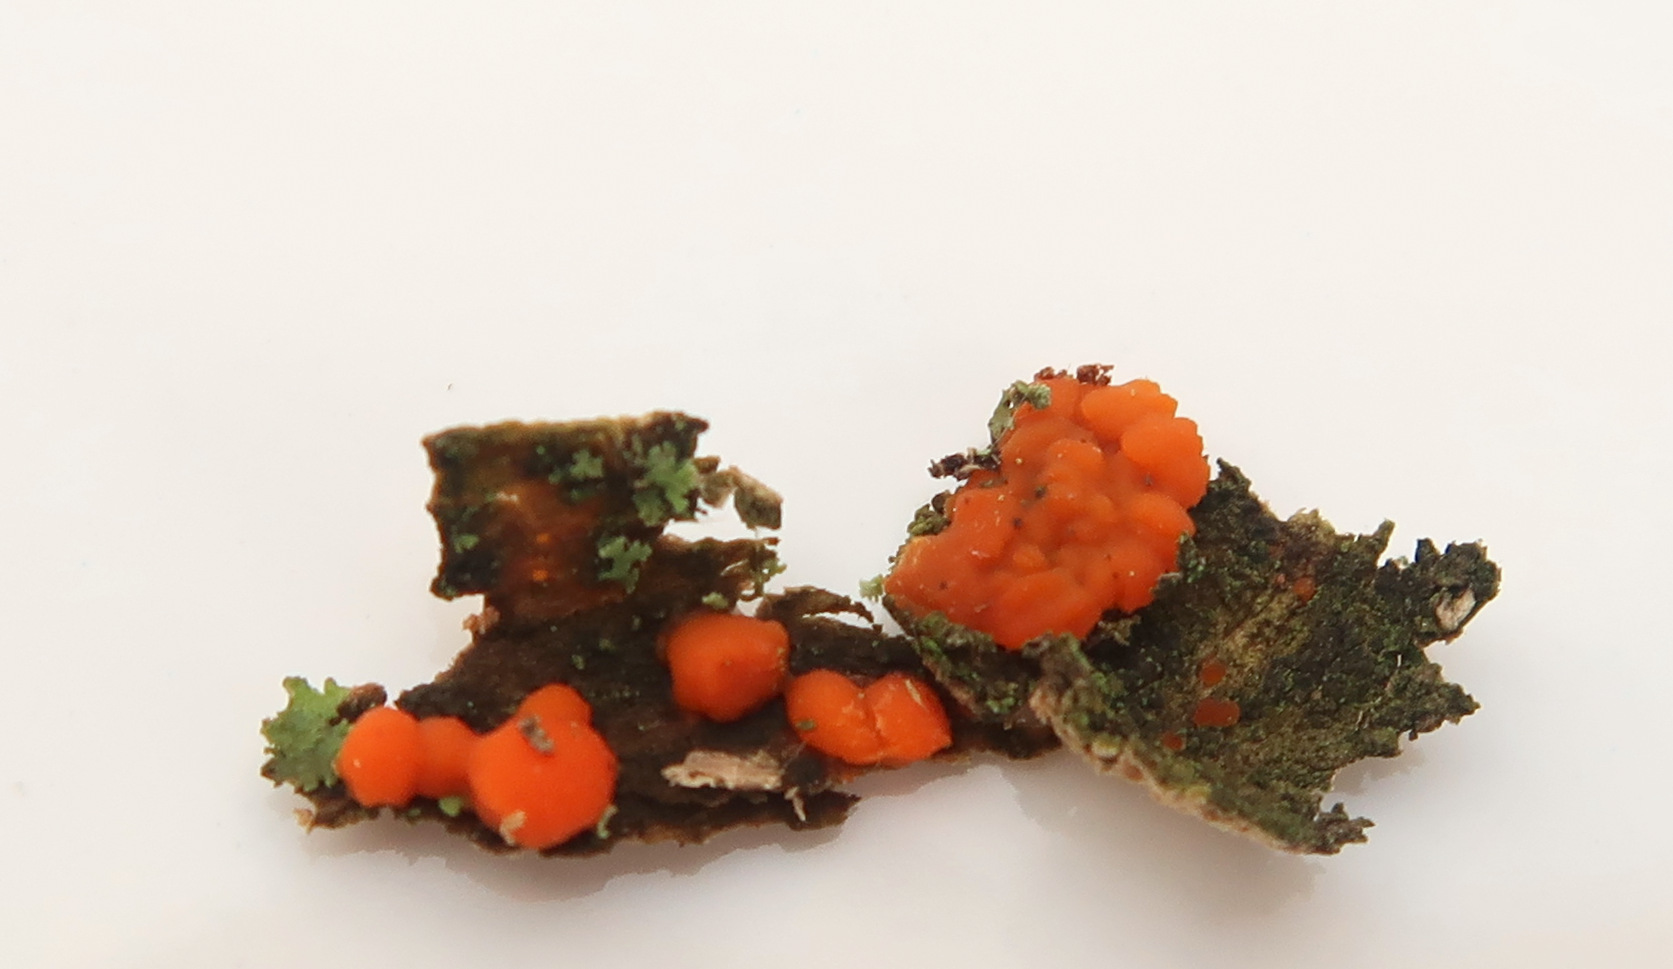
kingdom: Fungi
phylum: Basidiomycota
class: Dacrymycetes
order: Dacrymycetales
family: Dacrymycetaceae
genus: Dacrymyces
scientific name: Dacrymyces stillatus
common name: almindelig tåresvamp
